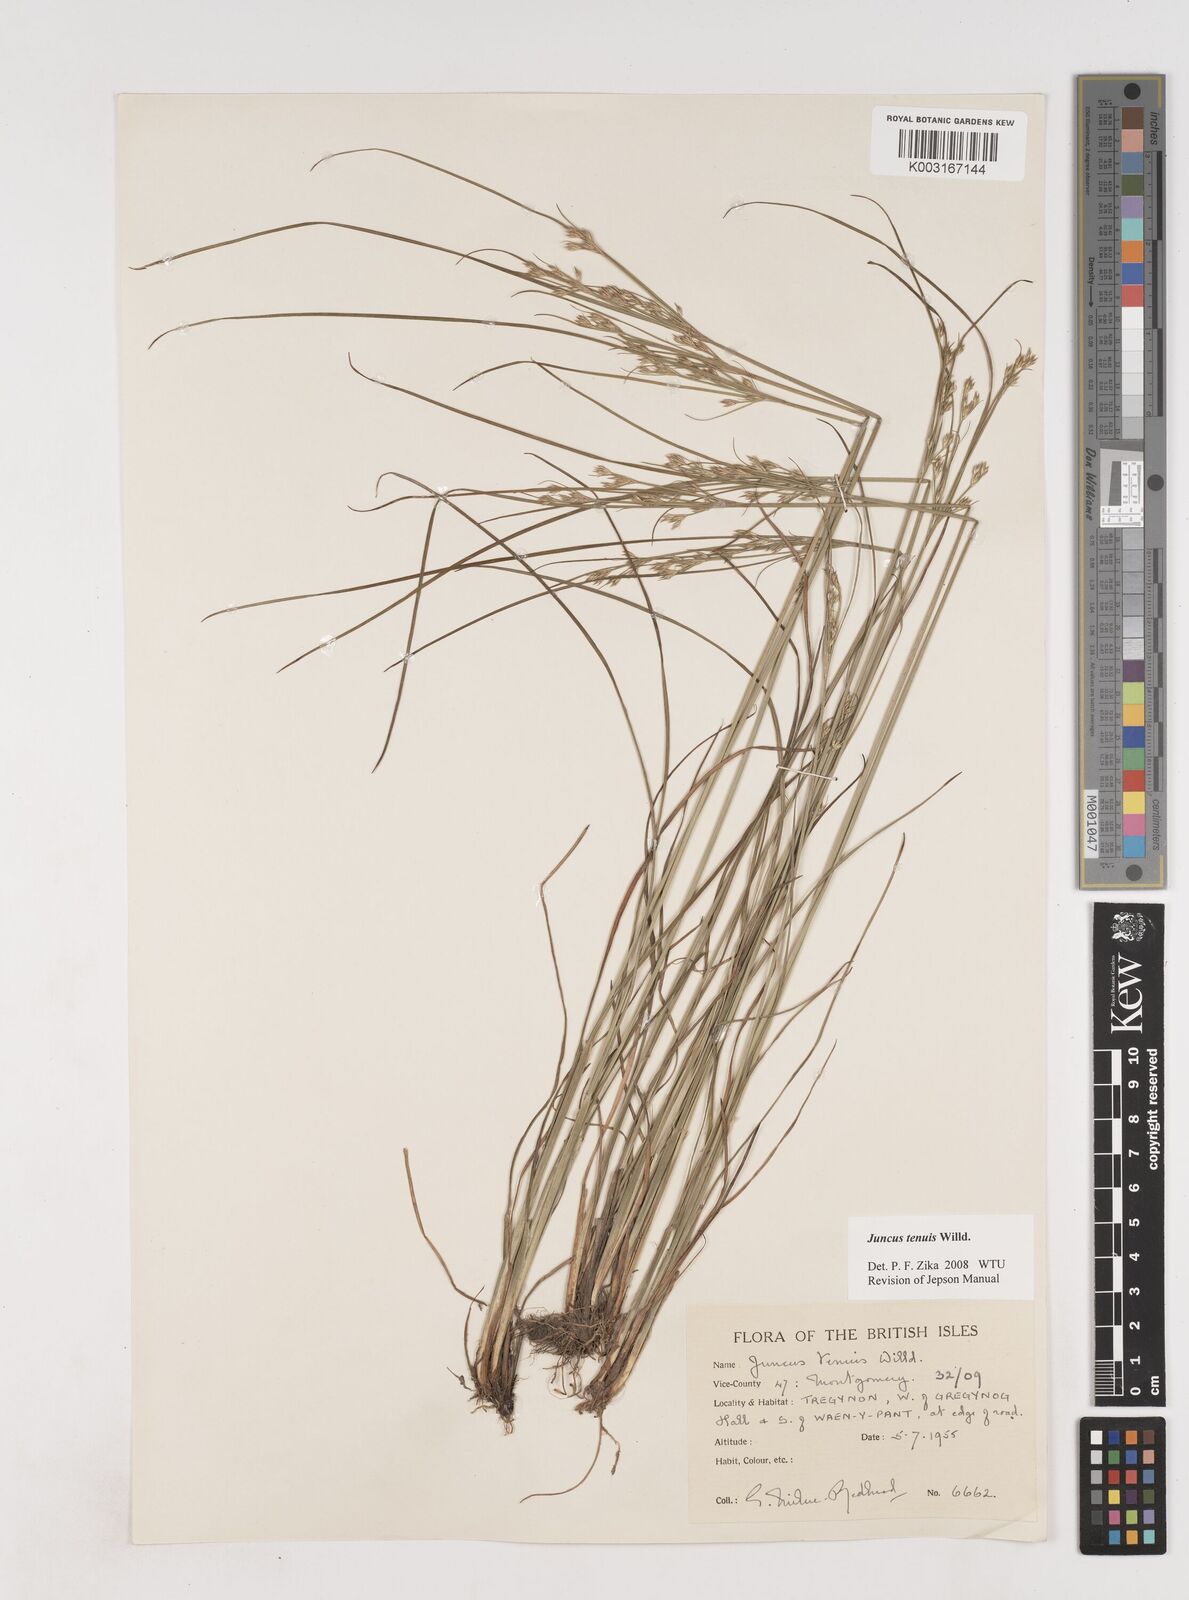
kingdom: Plantae
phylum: Tracheophyta
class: Liliopsida
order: Poales
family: Juncaceae
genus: Juncus
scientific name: Juncus tenuis
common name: Slender rush
